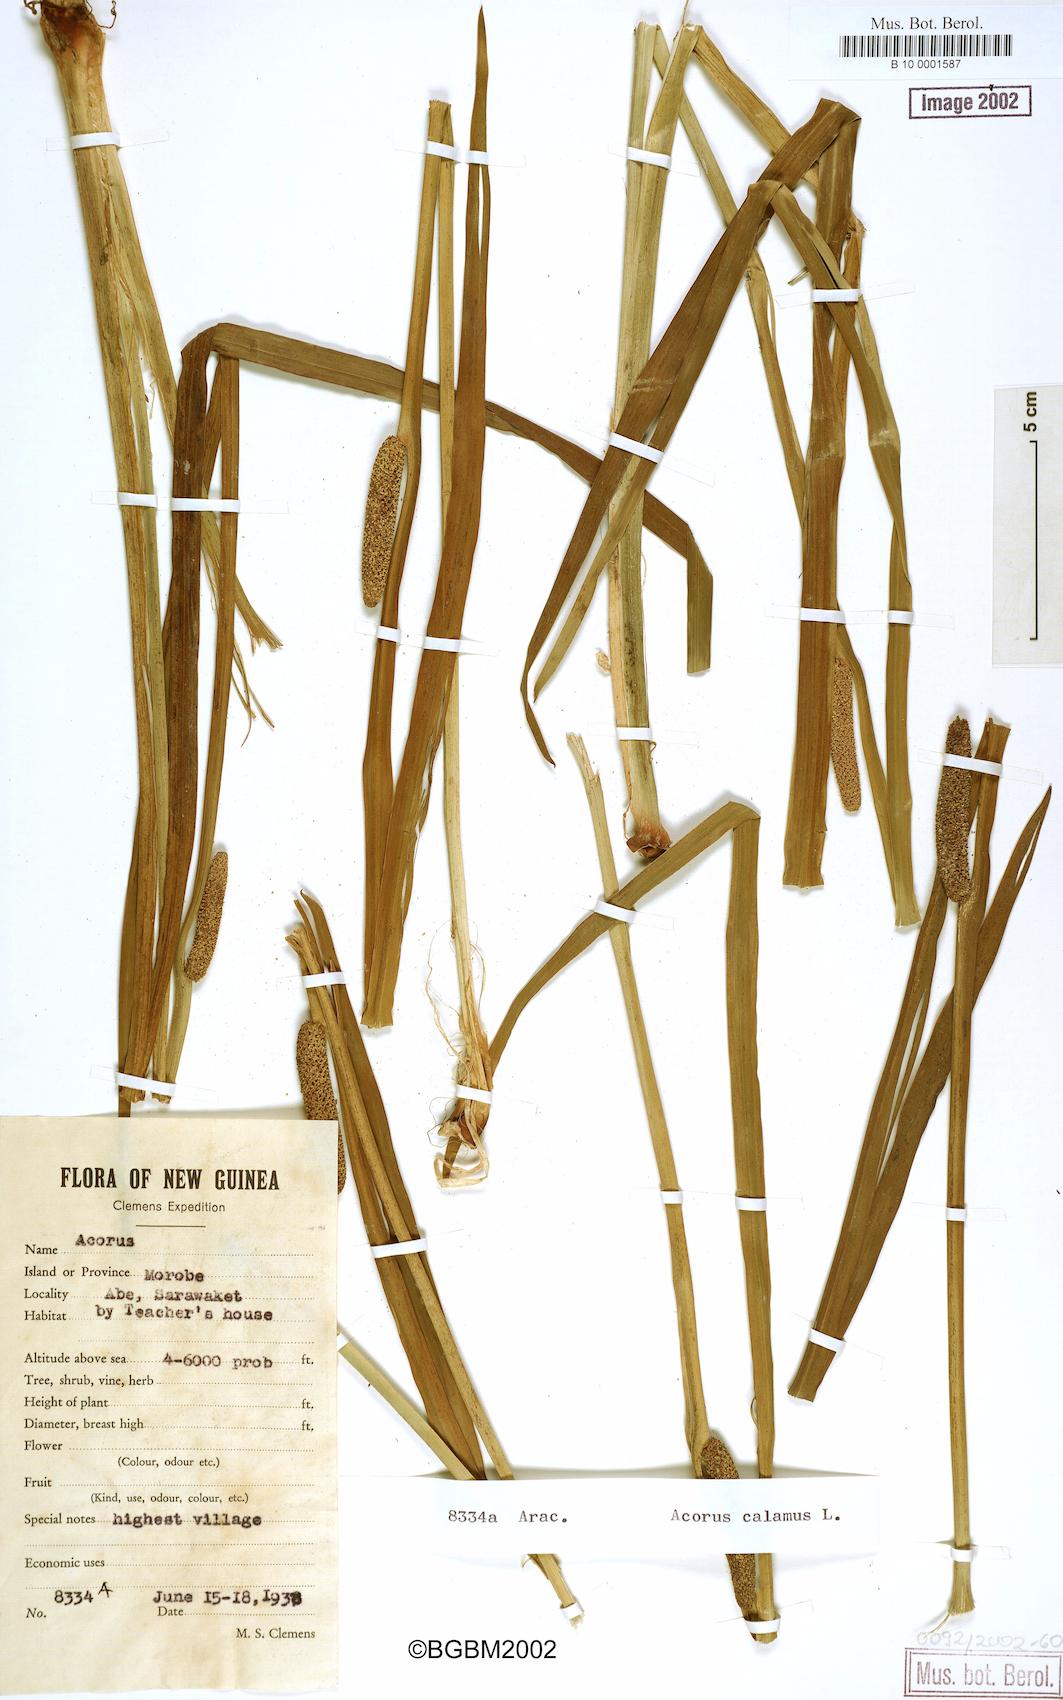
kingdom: Plantae
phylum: Tracheophyta
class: Liliopsida
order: Acorales
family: Acoraceae
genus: Acorus
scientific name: Acorus calamus
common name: Sweet-flag
